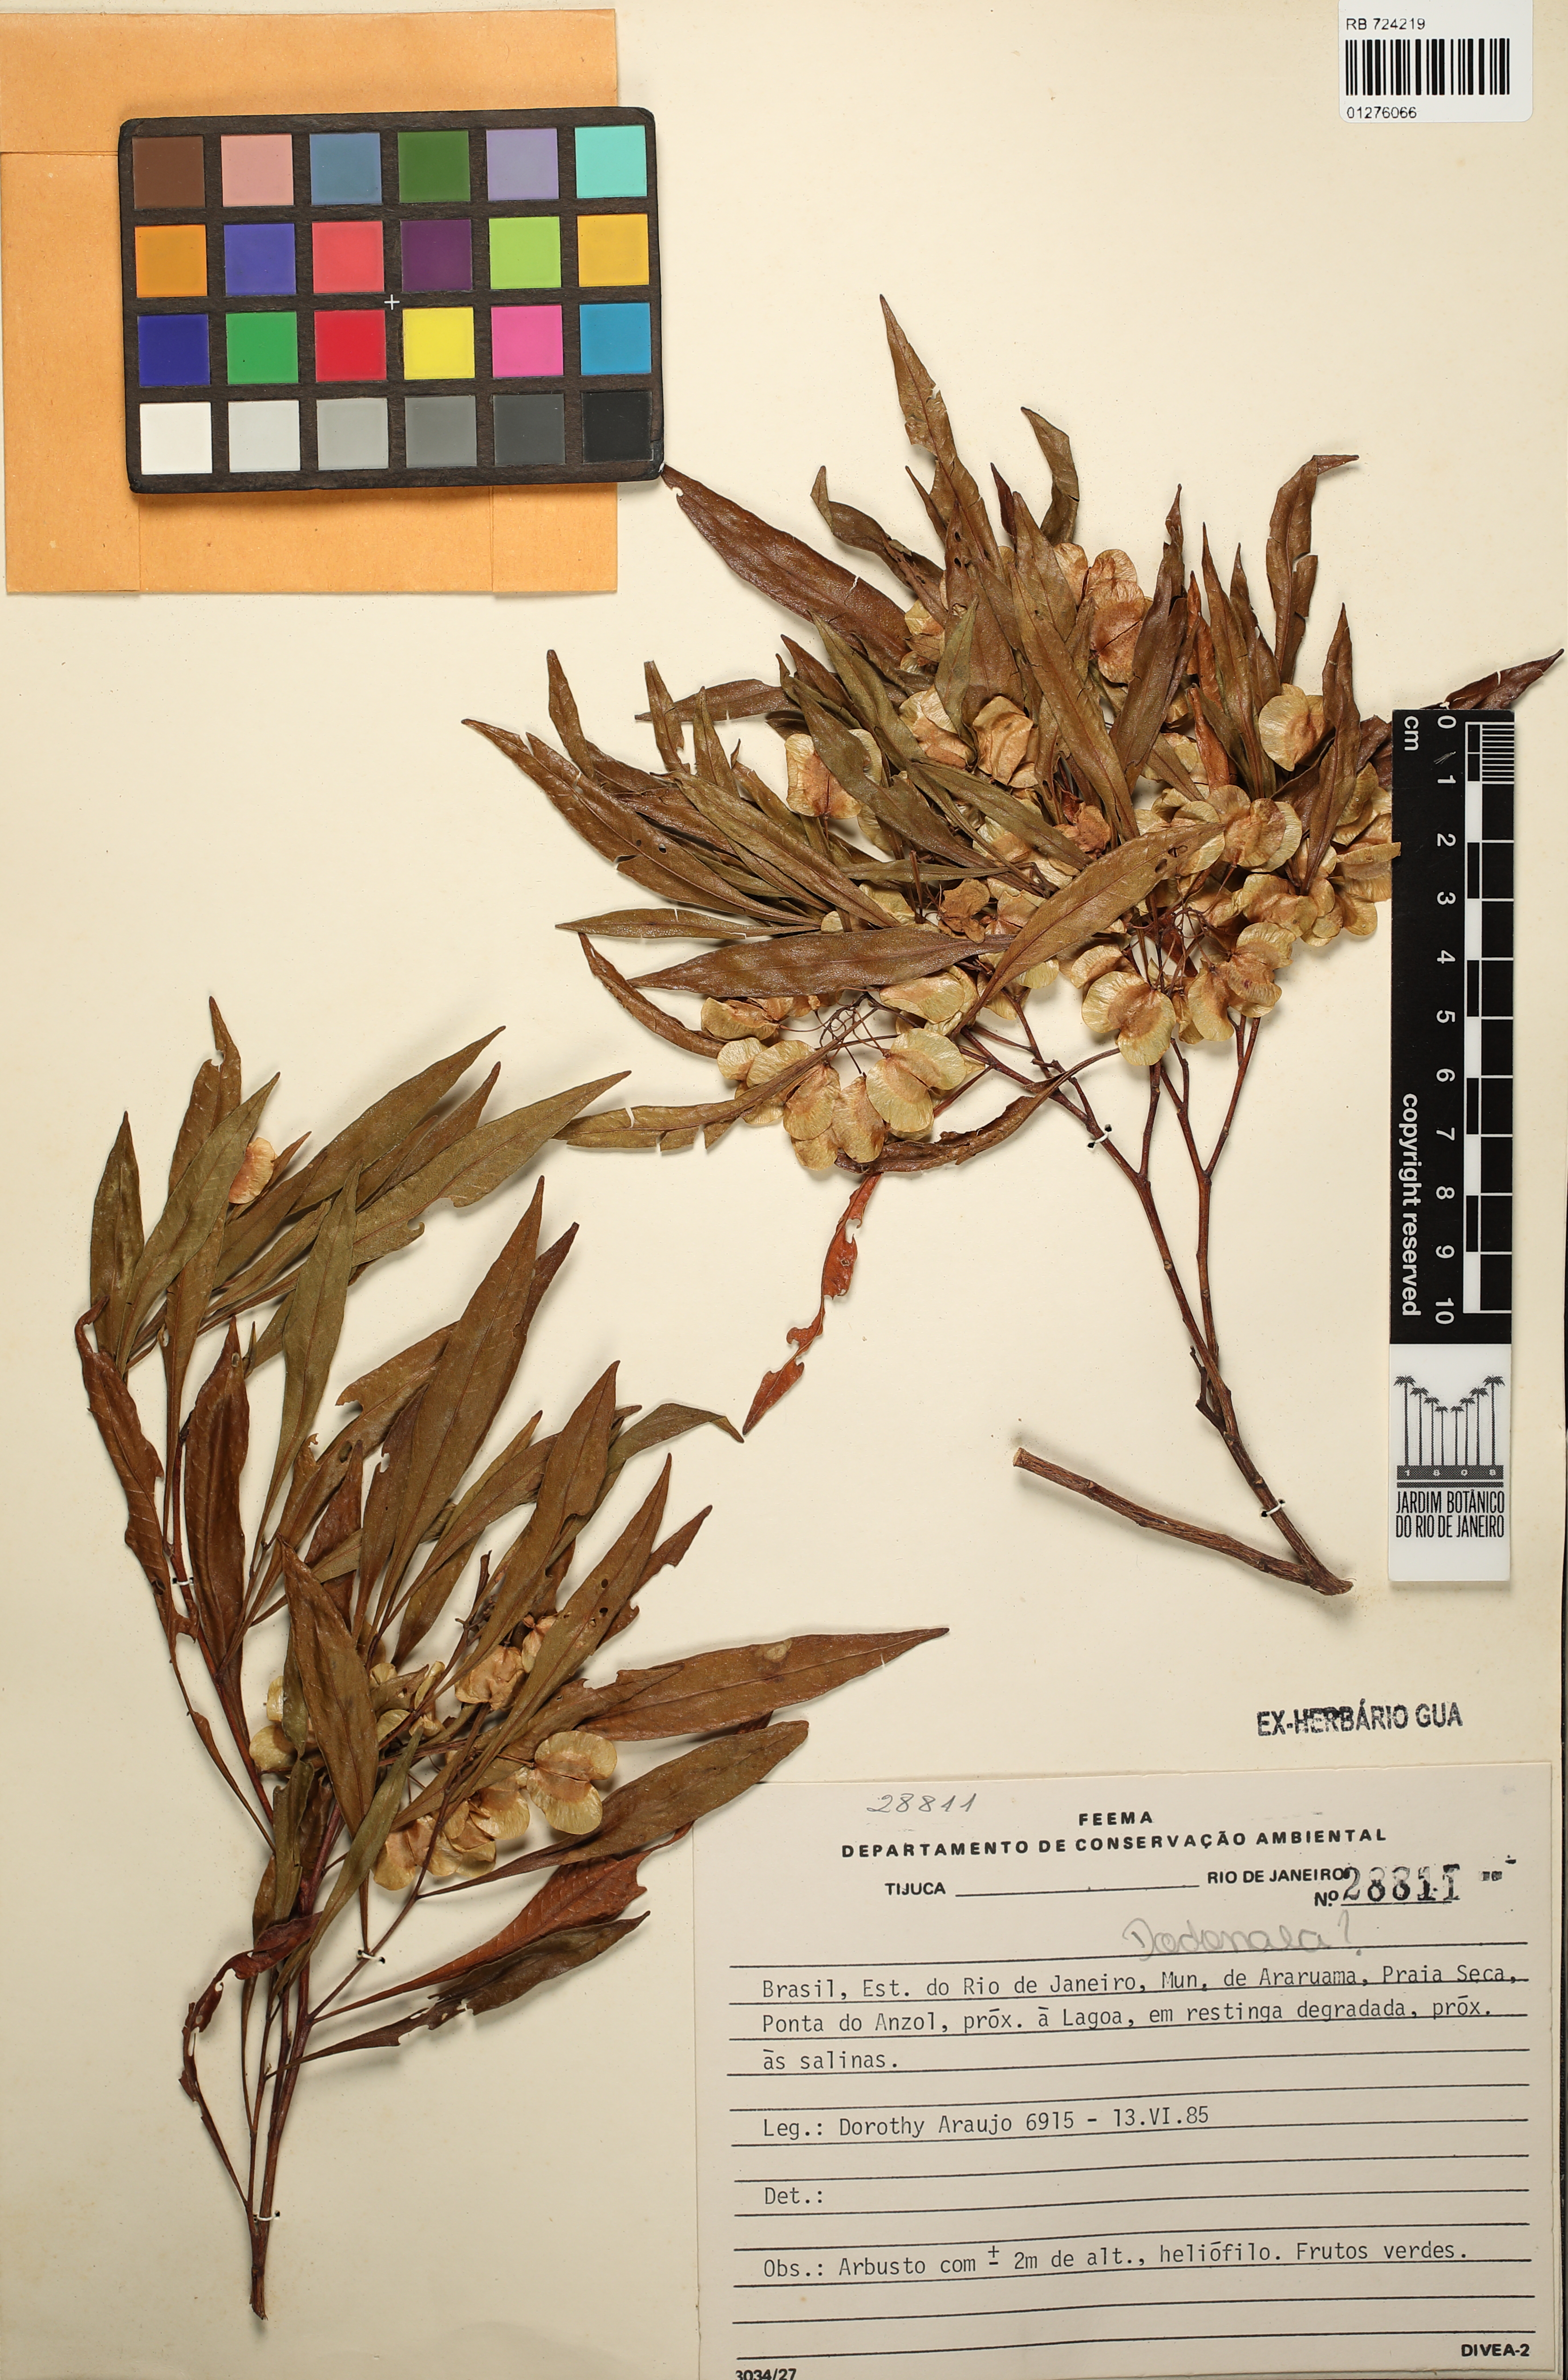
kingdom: Plantae
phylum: Tracheophyta
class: Magnoliopsida
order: Sapindales
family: Sapindaceae
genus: Dodonaea
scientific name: Dodonaea
